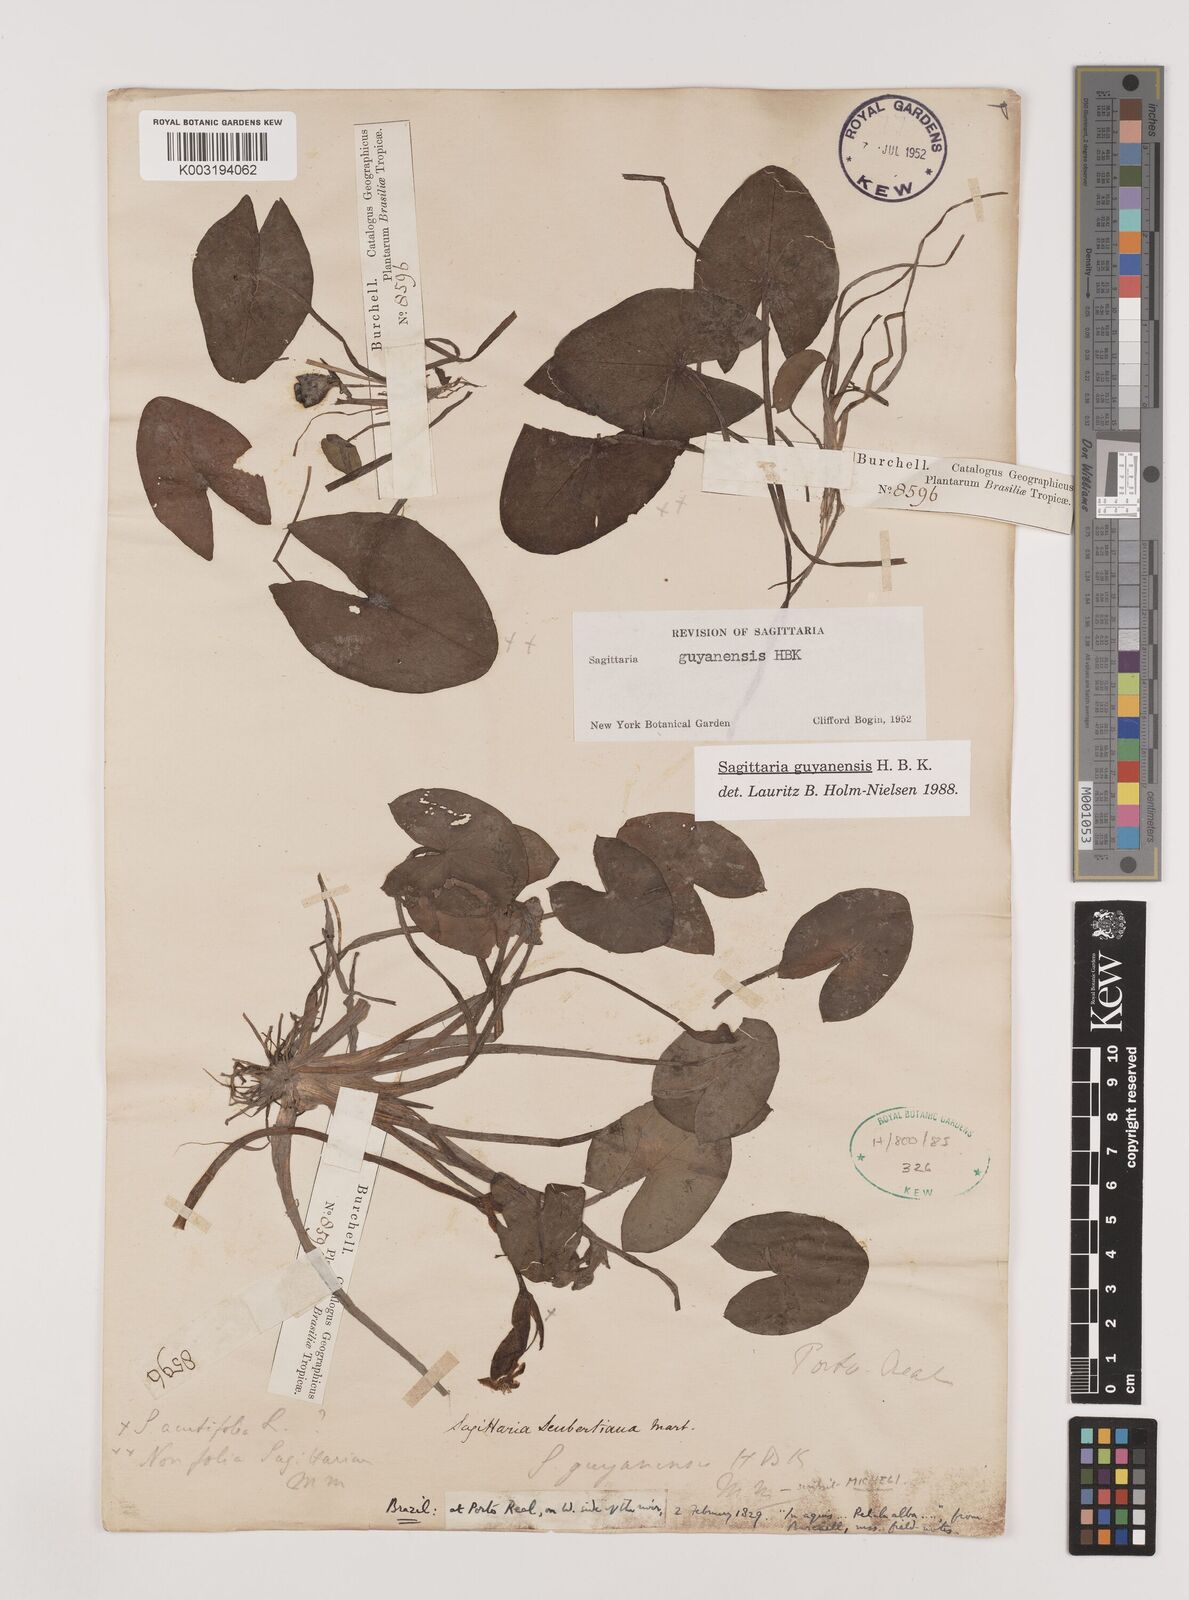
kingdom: Plantae
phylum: Tracheophyta
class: Liliopsida
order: Alismatales
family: Alismataceae
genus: Sagittaria
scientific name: Sagittaria guayanensis
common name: Guyanese arrowhead
